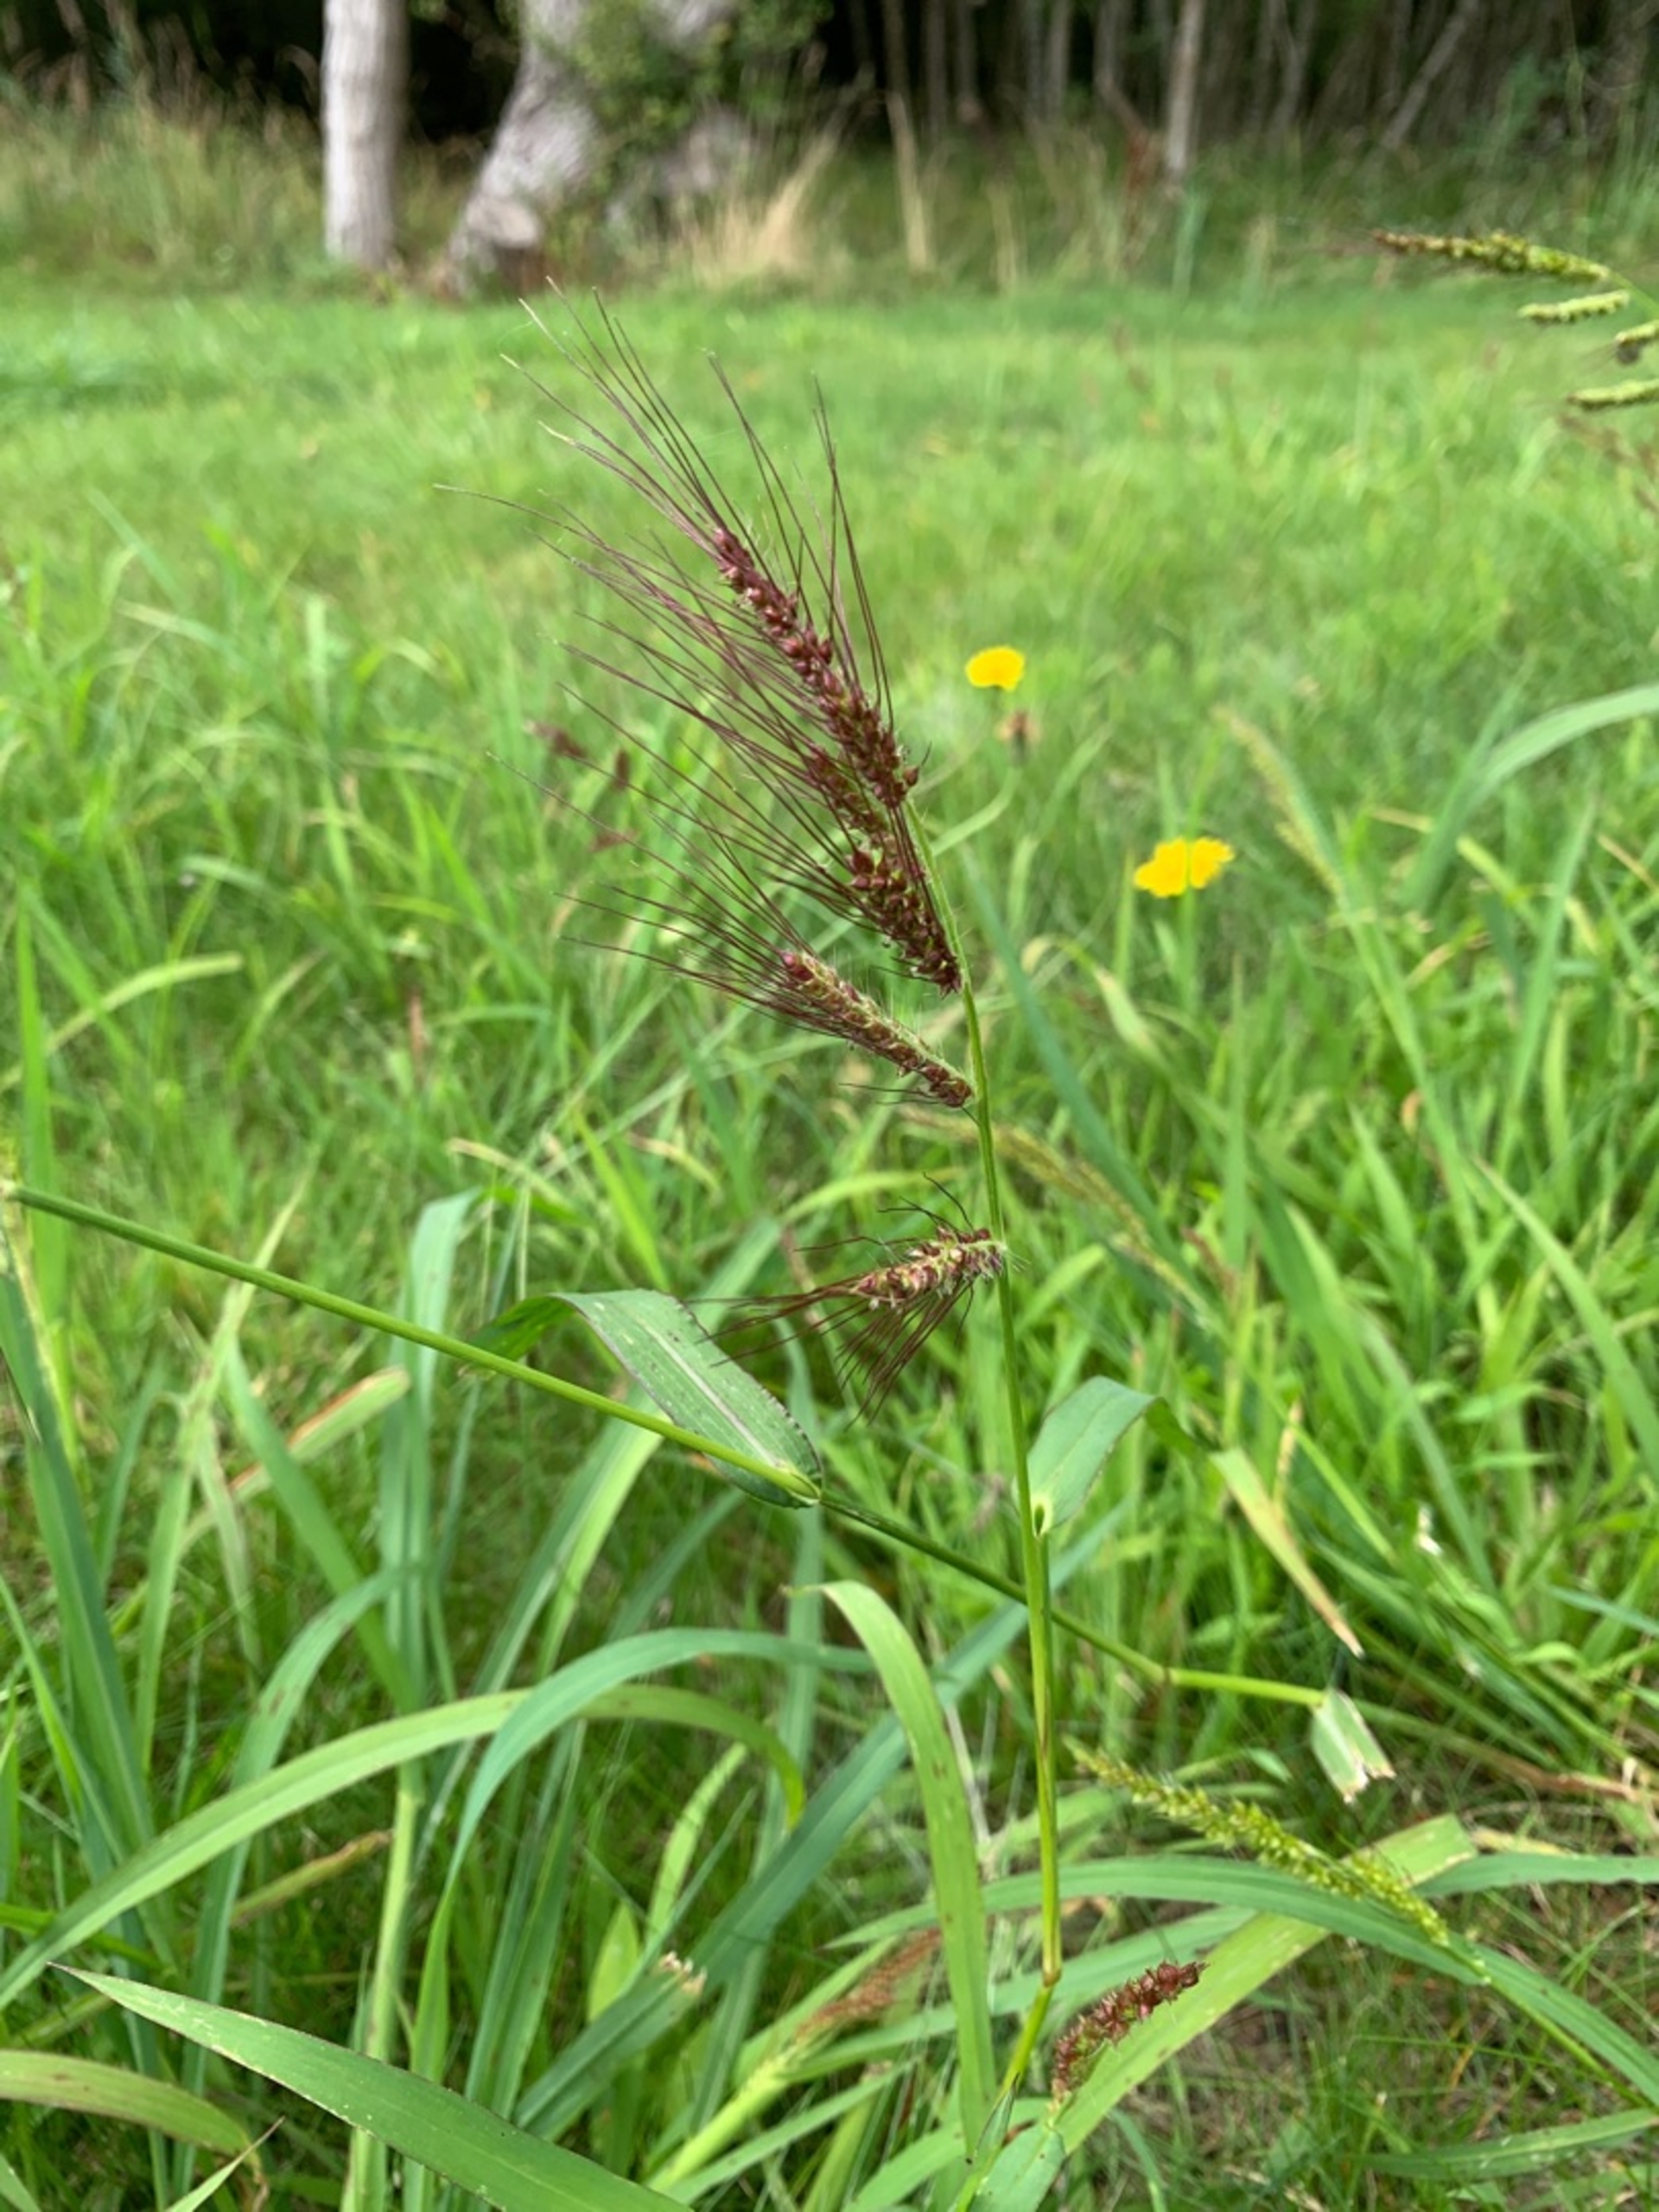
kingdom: Plantae
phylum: Tracheophyta
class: Liliopsida
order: Poales
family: Poaceae
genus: Echinochloa
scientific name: Echinochloa crus-galli
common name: Almindelig hanespore
